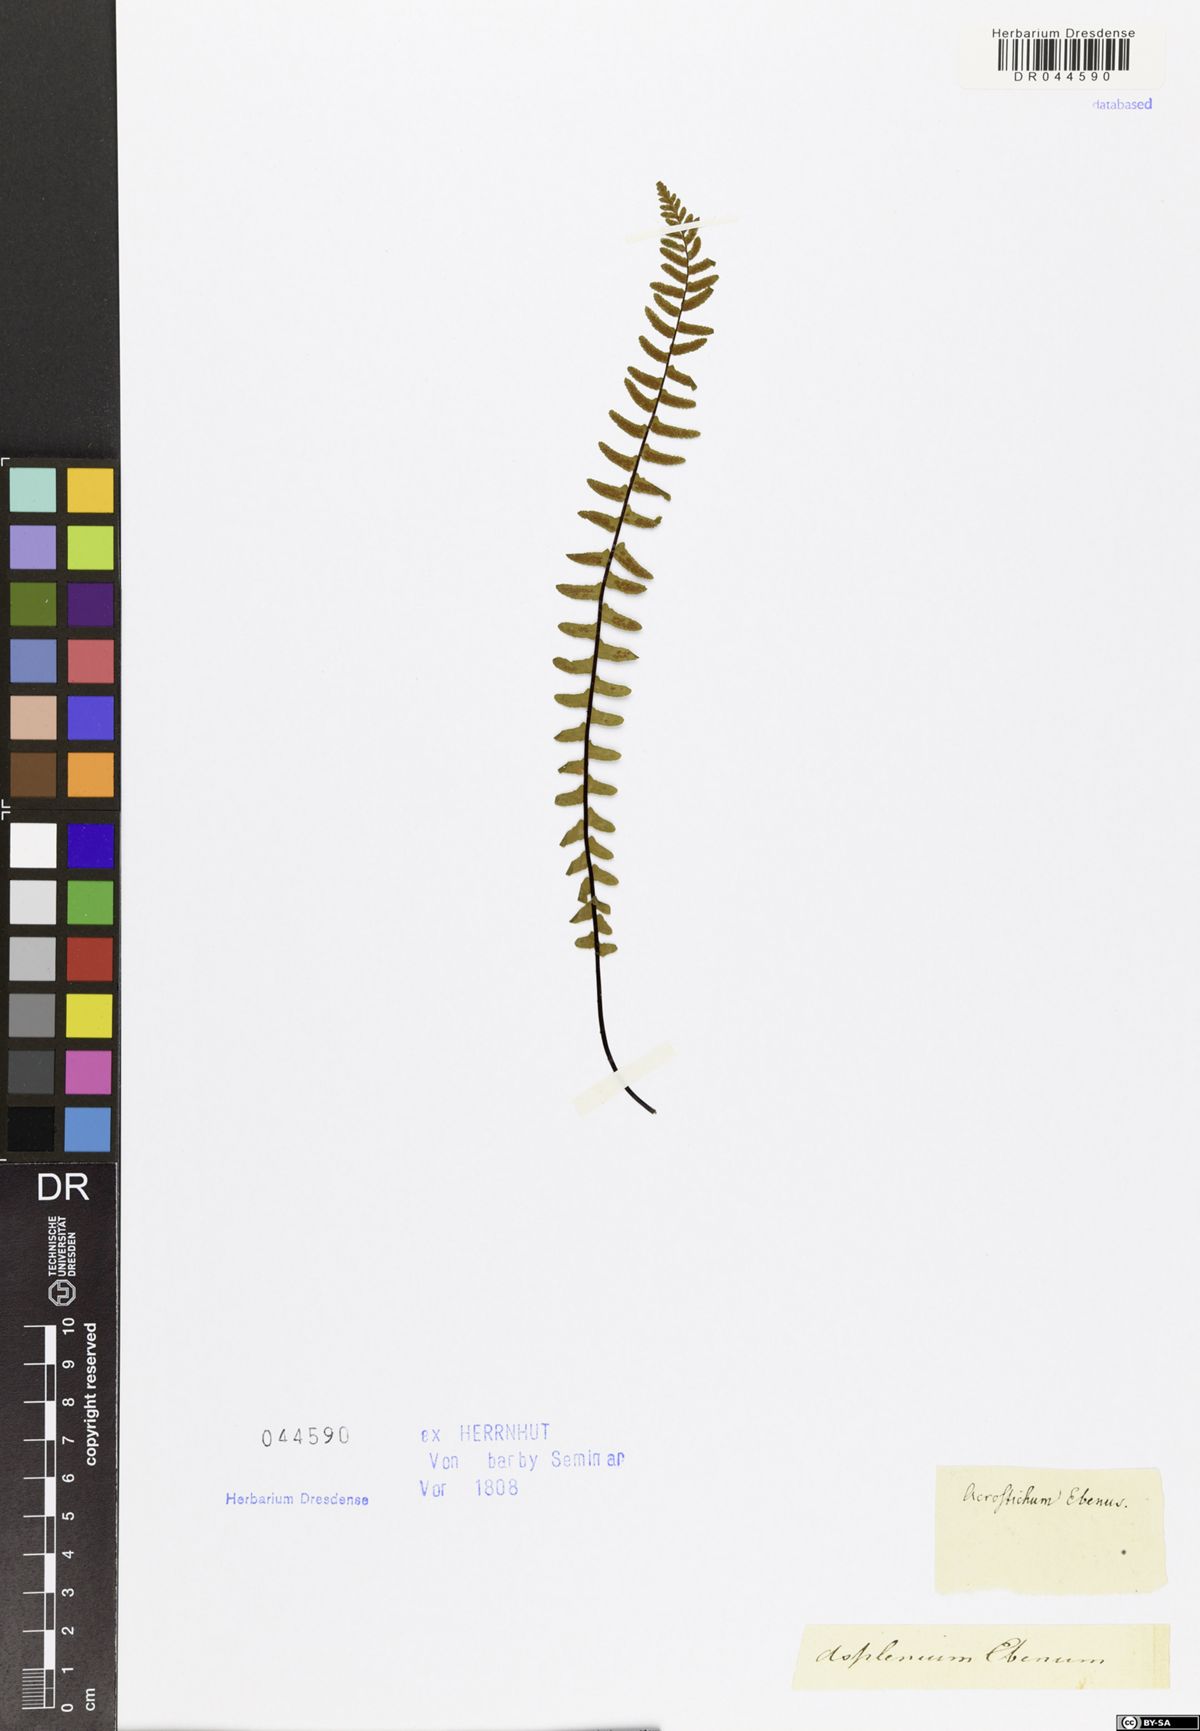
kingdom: Plantae
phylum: Tracheophyta
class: Polypodiopsida
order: Polypodiales
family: Aspleniaceae
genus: Asplenium
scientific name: Asplenium platyneuron
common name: Ebony spleenwort
